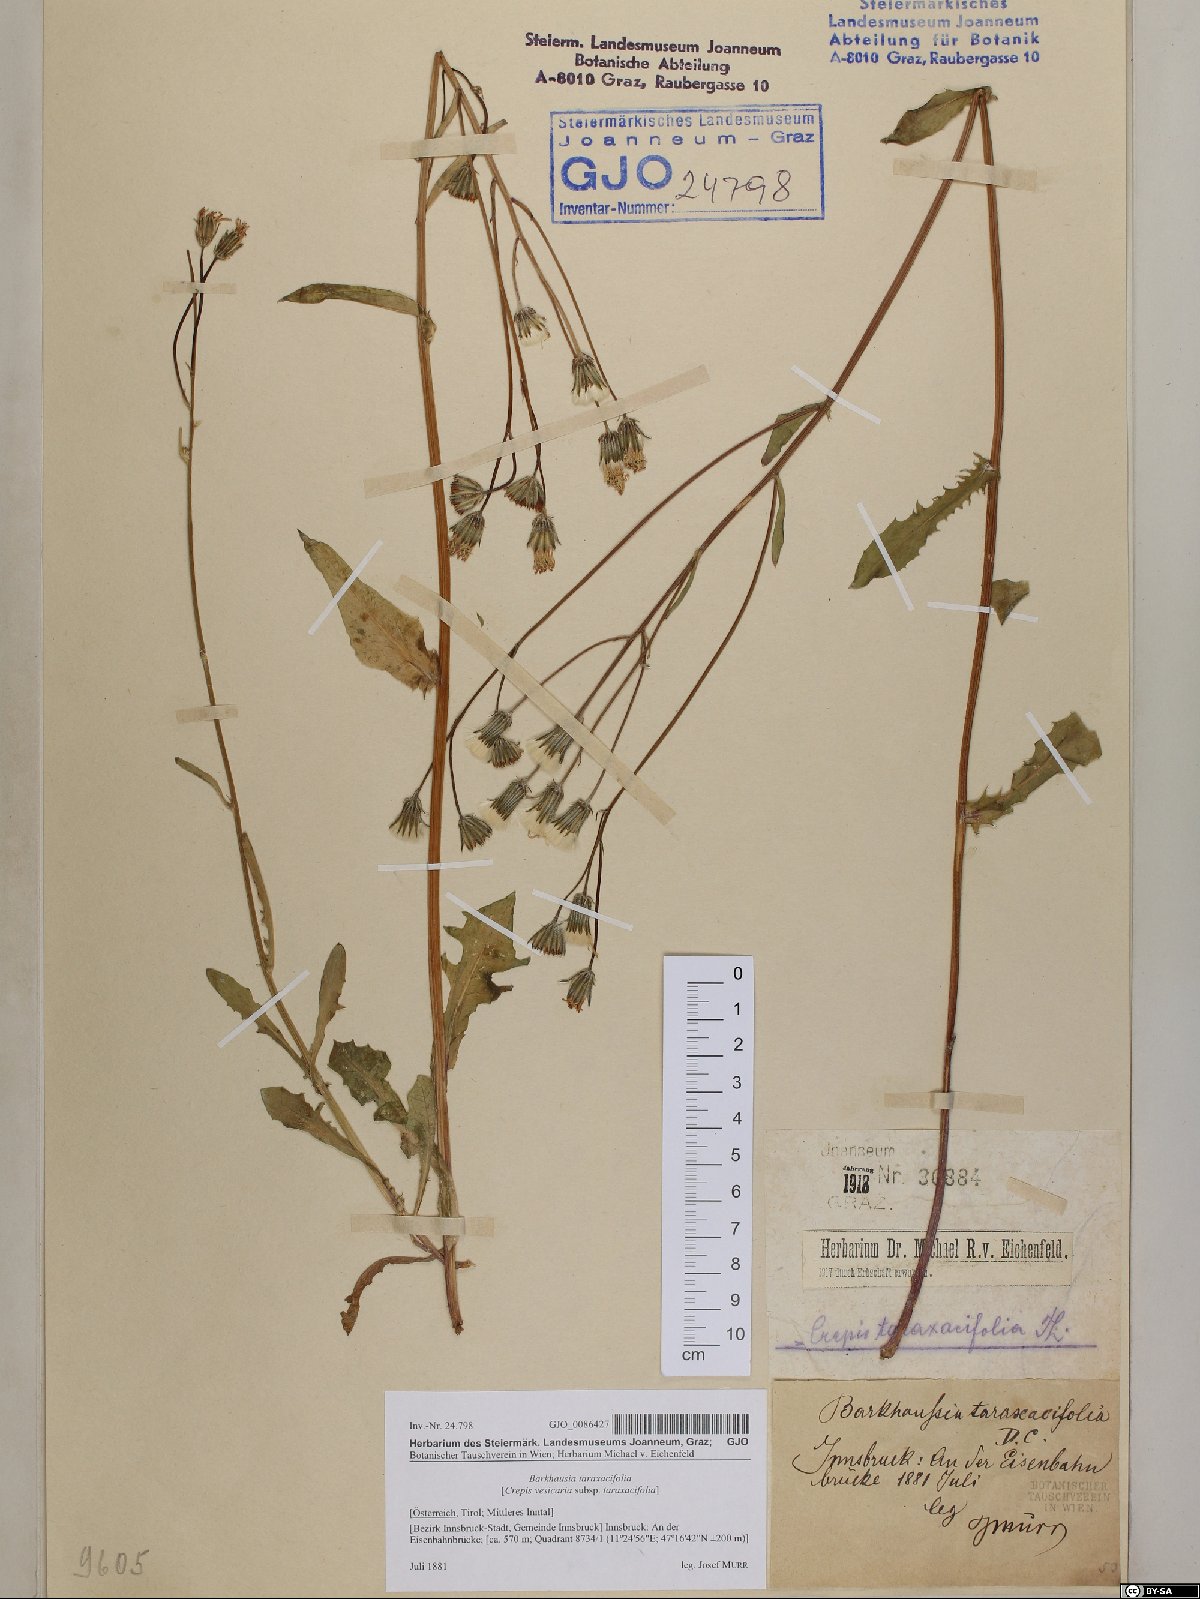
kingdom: Plantae
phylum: Tracheophyta
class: Magnoliopsida
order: Asterales
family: Asteraceae
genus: Crepis
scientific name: Crepis vesicaria
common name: Beaked hawksbeard
